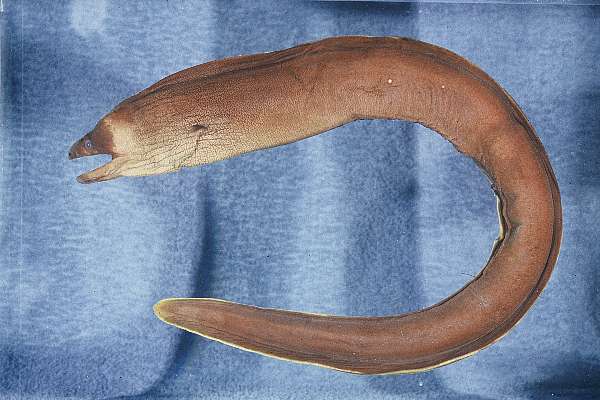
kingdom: Animalia
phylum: Chordata
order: Anguilliformes
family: Muraenidae
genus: Gymnothorax
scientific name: Gymnothorax unicolor
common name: Brown moray
